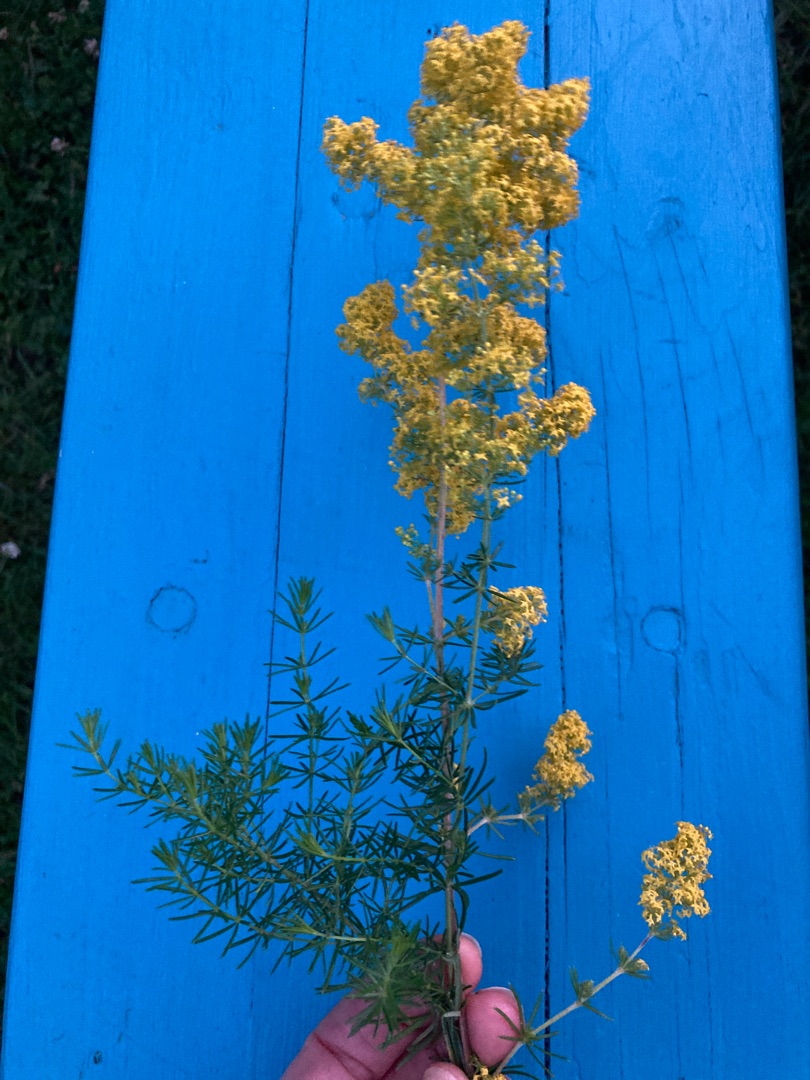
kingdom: Plantae
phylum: Tracheophyta
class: Magnoliopsida
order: Gentianales
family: Rubiaceae
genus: Galium
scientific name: Galium verum
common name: Gul snerre
